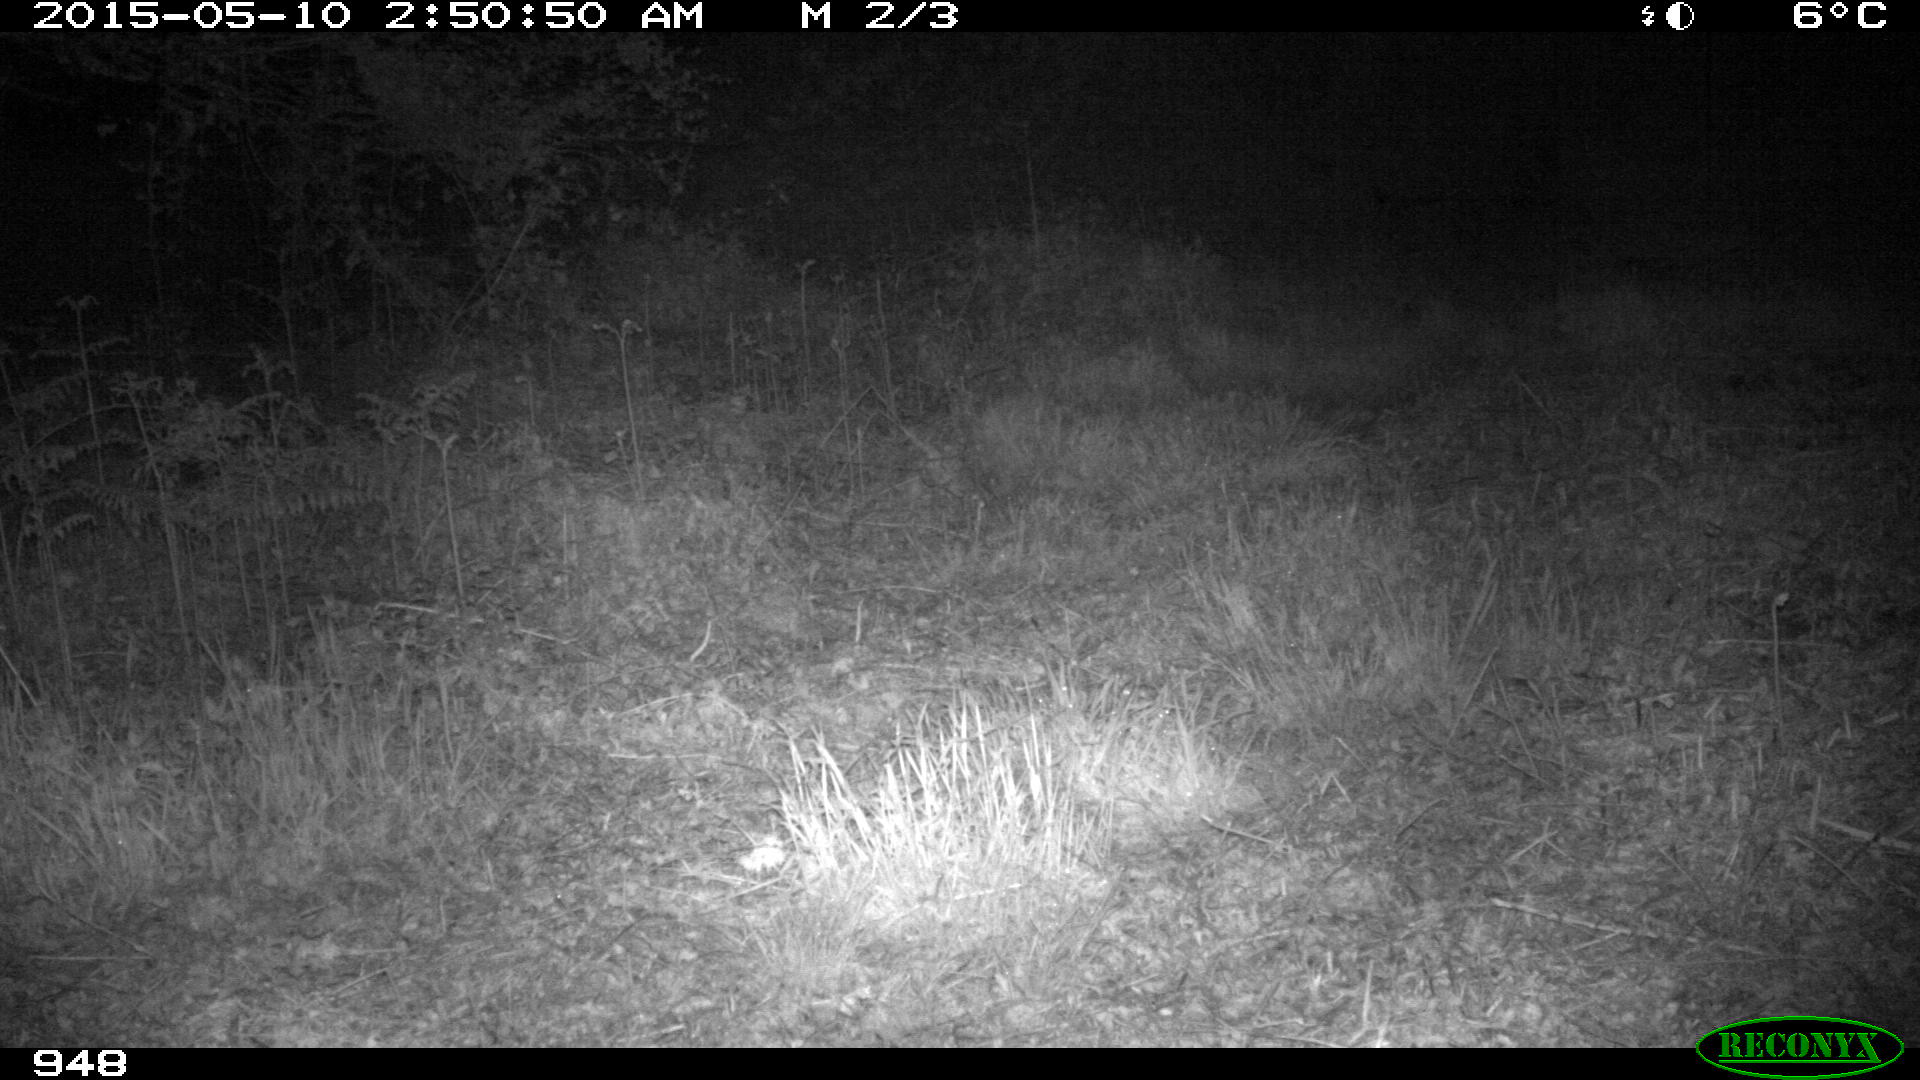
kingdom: Animalia
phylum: Chordata
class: Mammalia
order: Carnivora
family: Canidae
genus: Vulpes
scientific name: Vulpes vulpes
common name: Red fox
